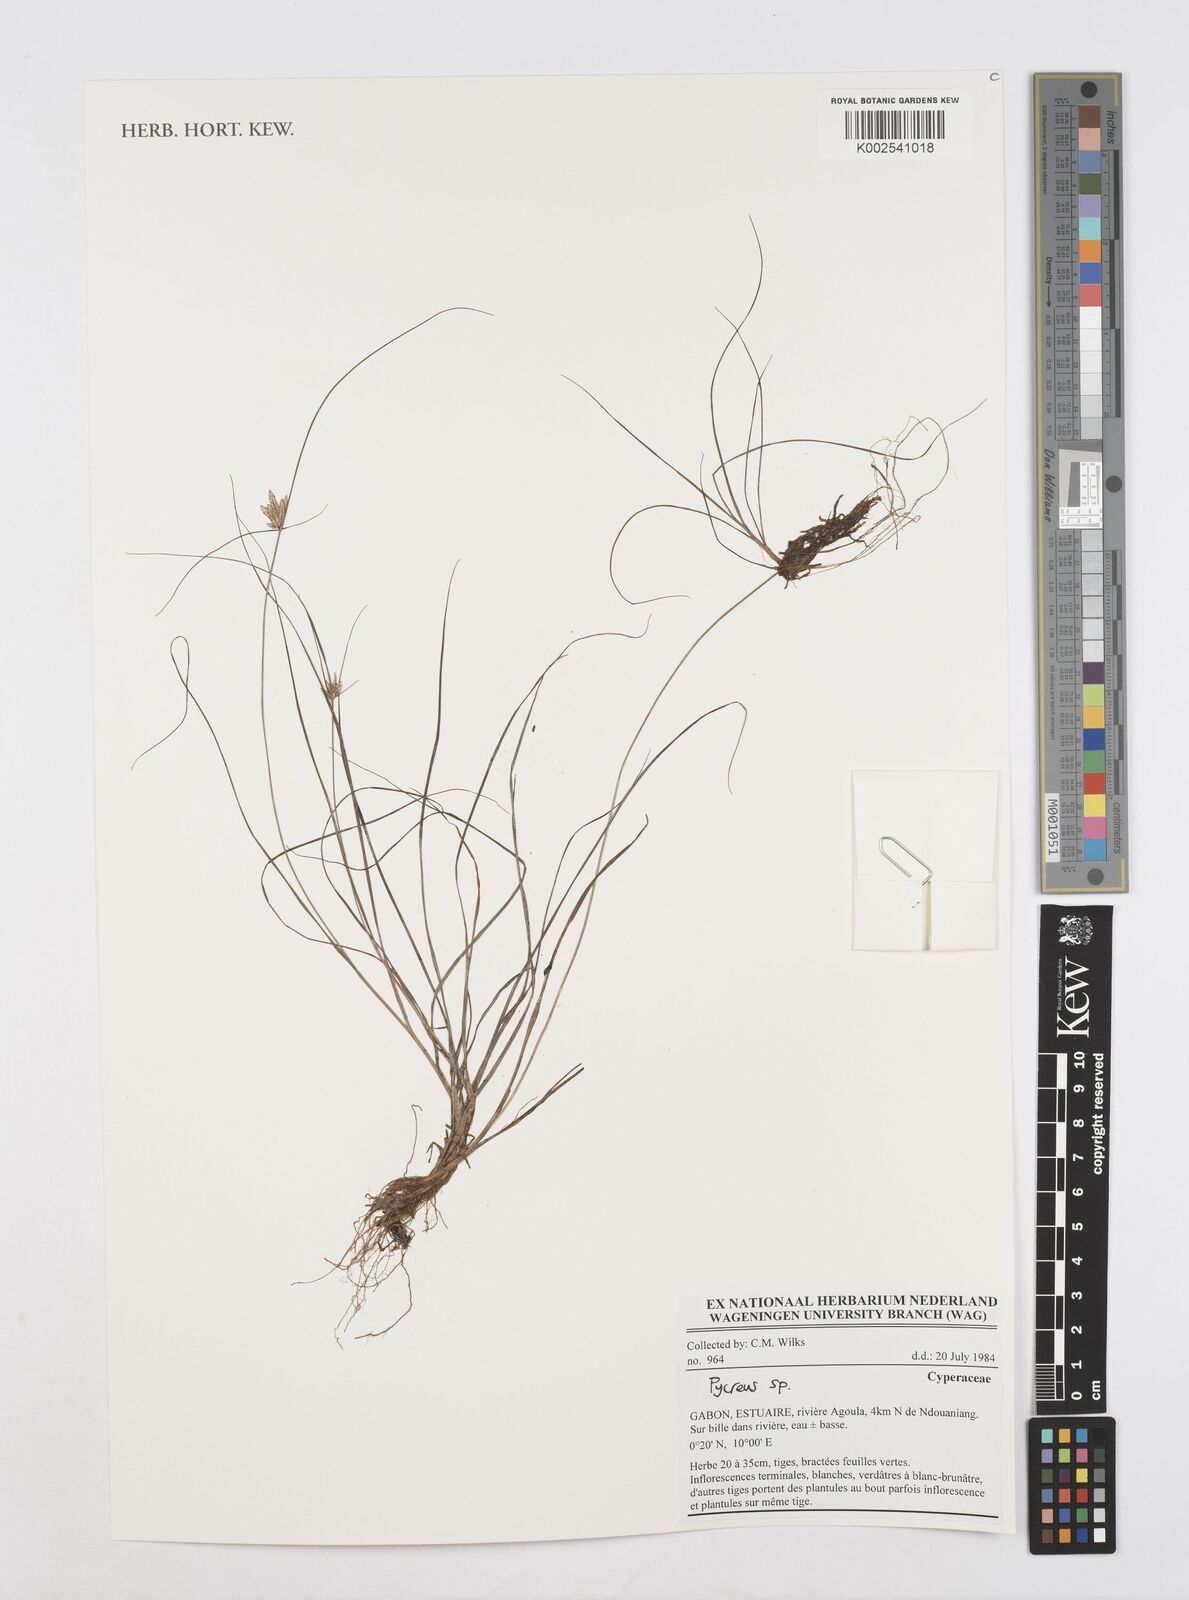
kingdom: Plantae
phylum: Tracheophyta
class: Liliopsida
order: Poales
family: Cyperaceae
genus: Cyperus
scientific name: Cyperus
